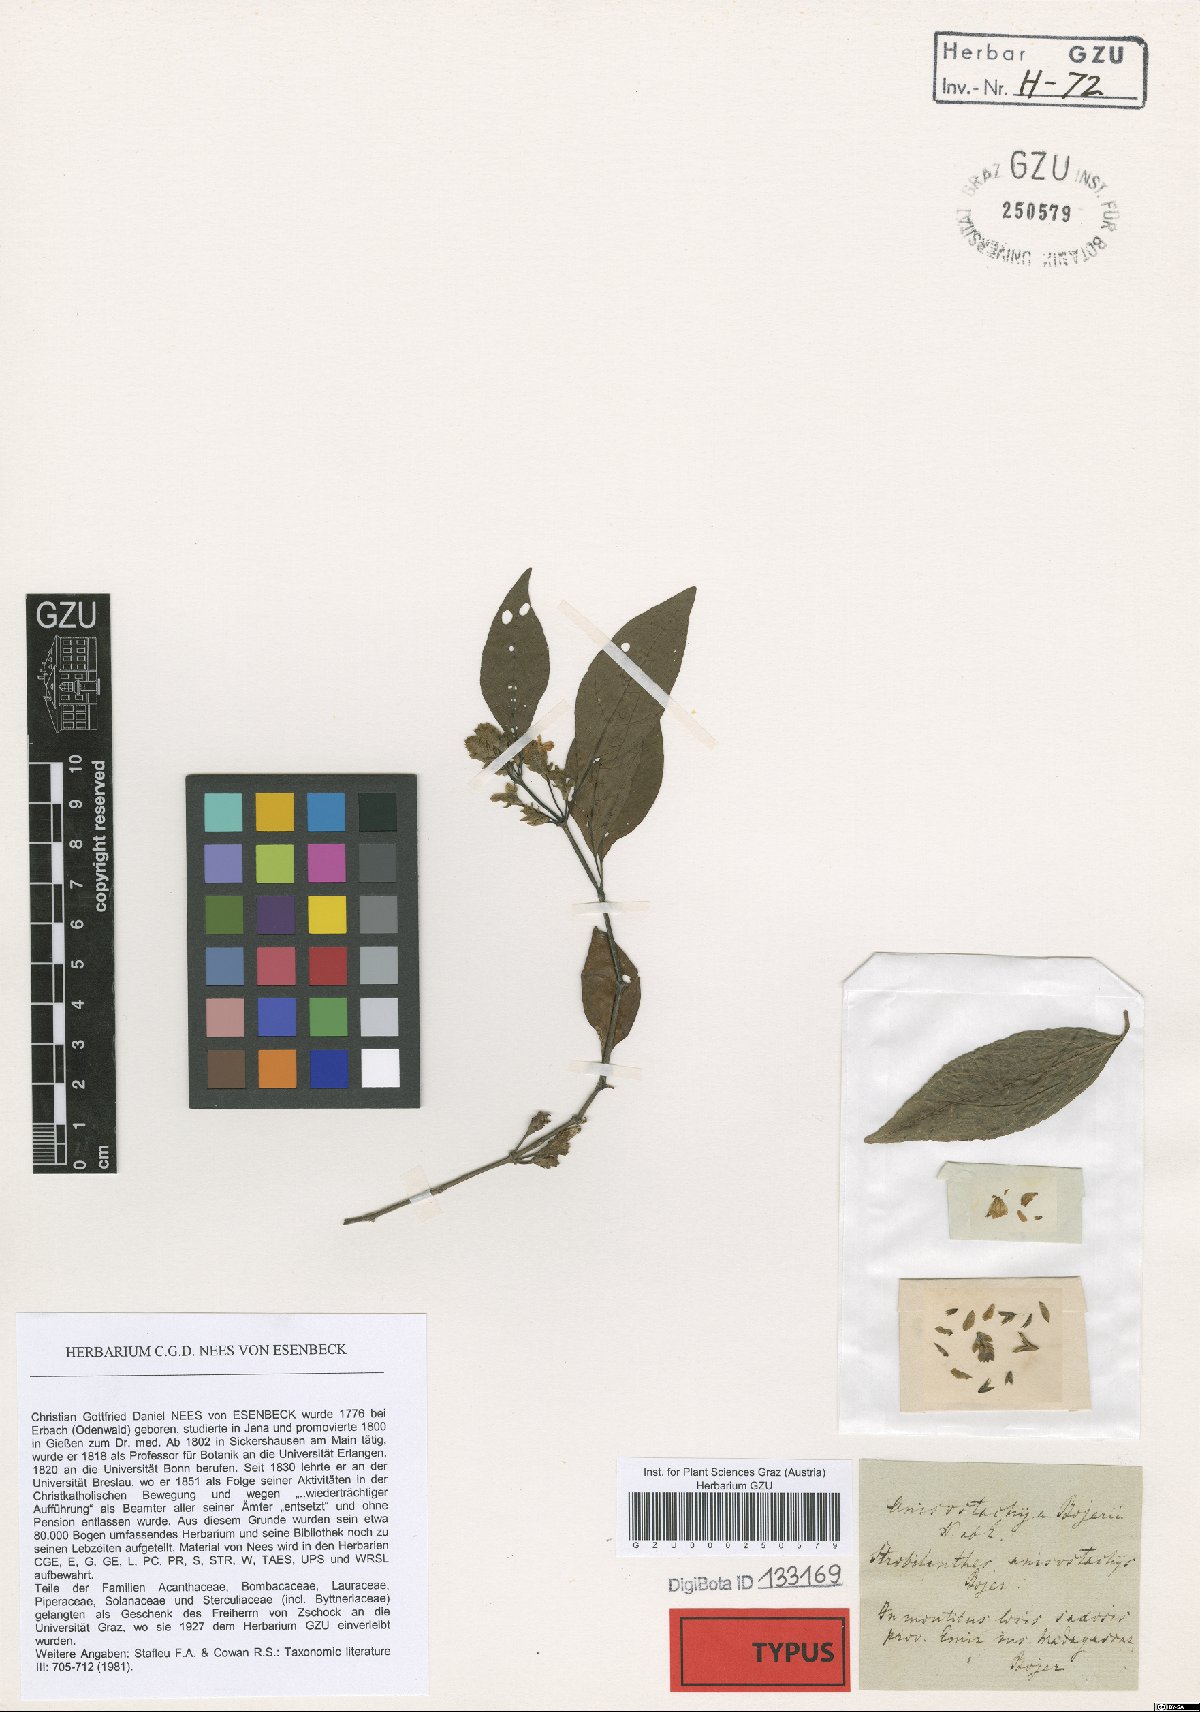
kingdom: Plantae
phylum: Tracheophyta
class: Magnoliopsida
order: Lamiales
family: Acanthaceae
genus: Anisostachya
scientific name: Anisostachya bojeri
